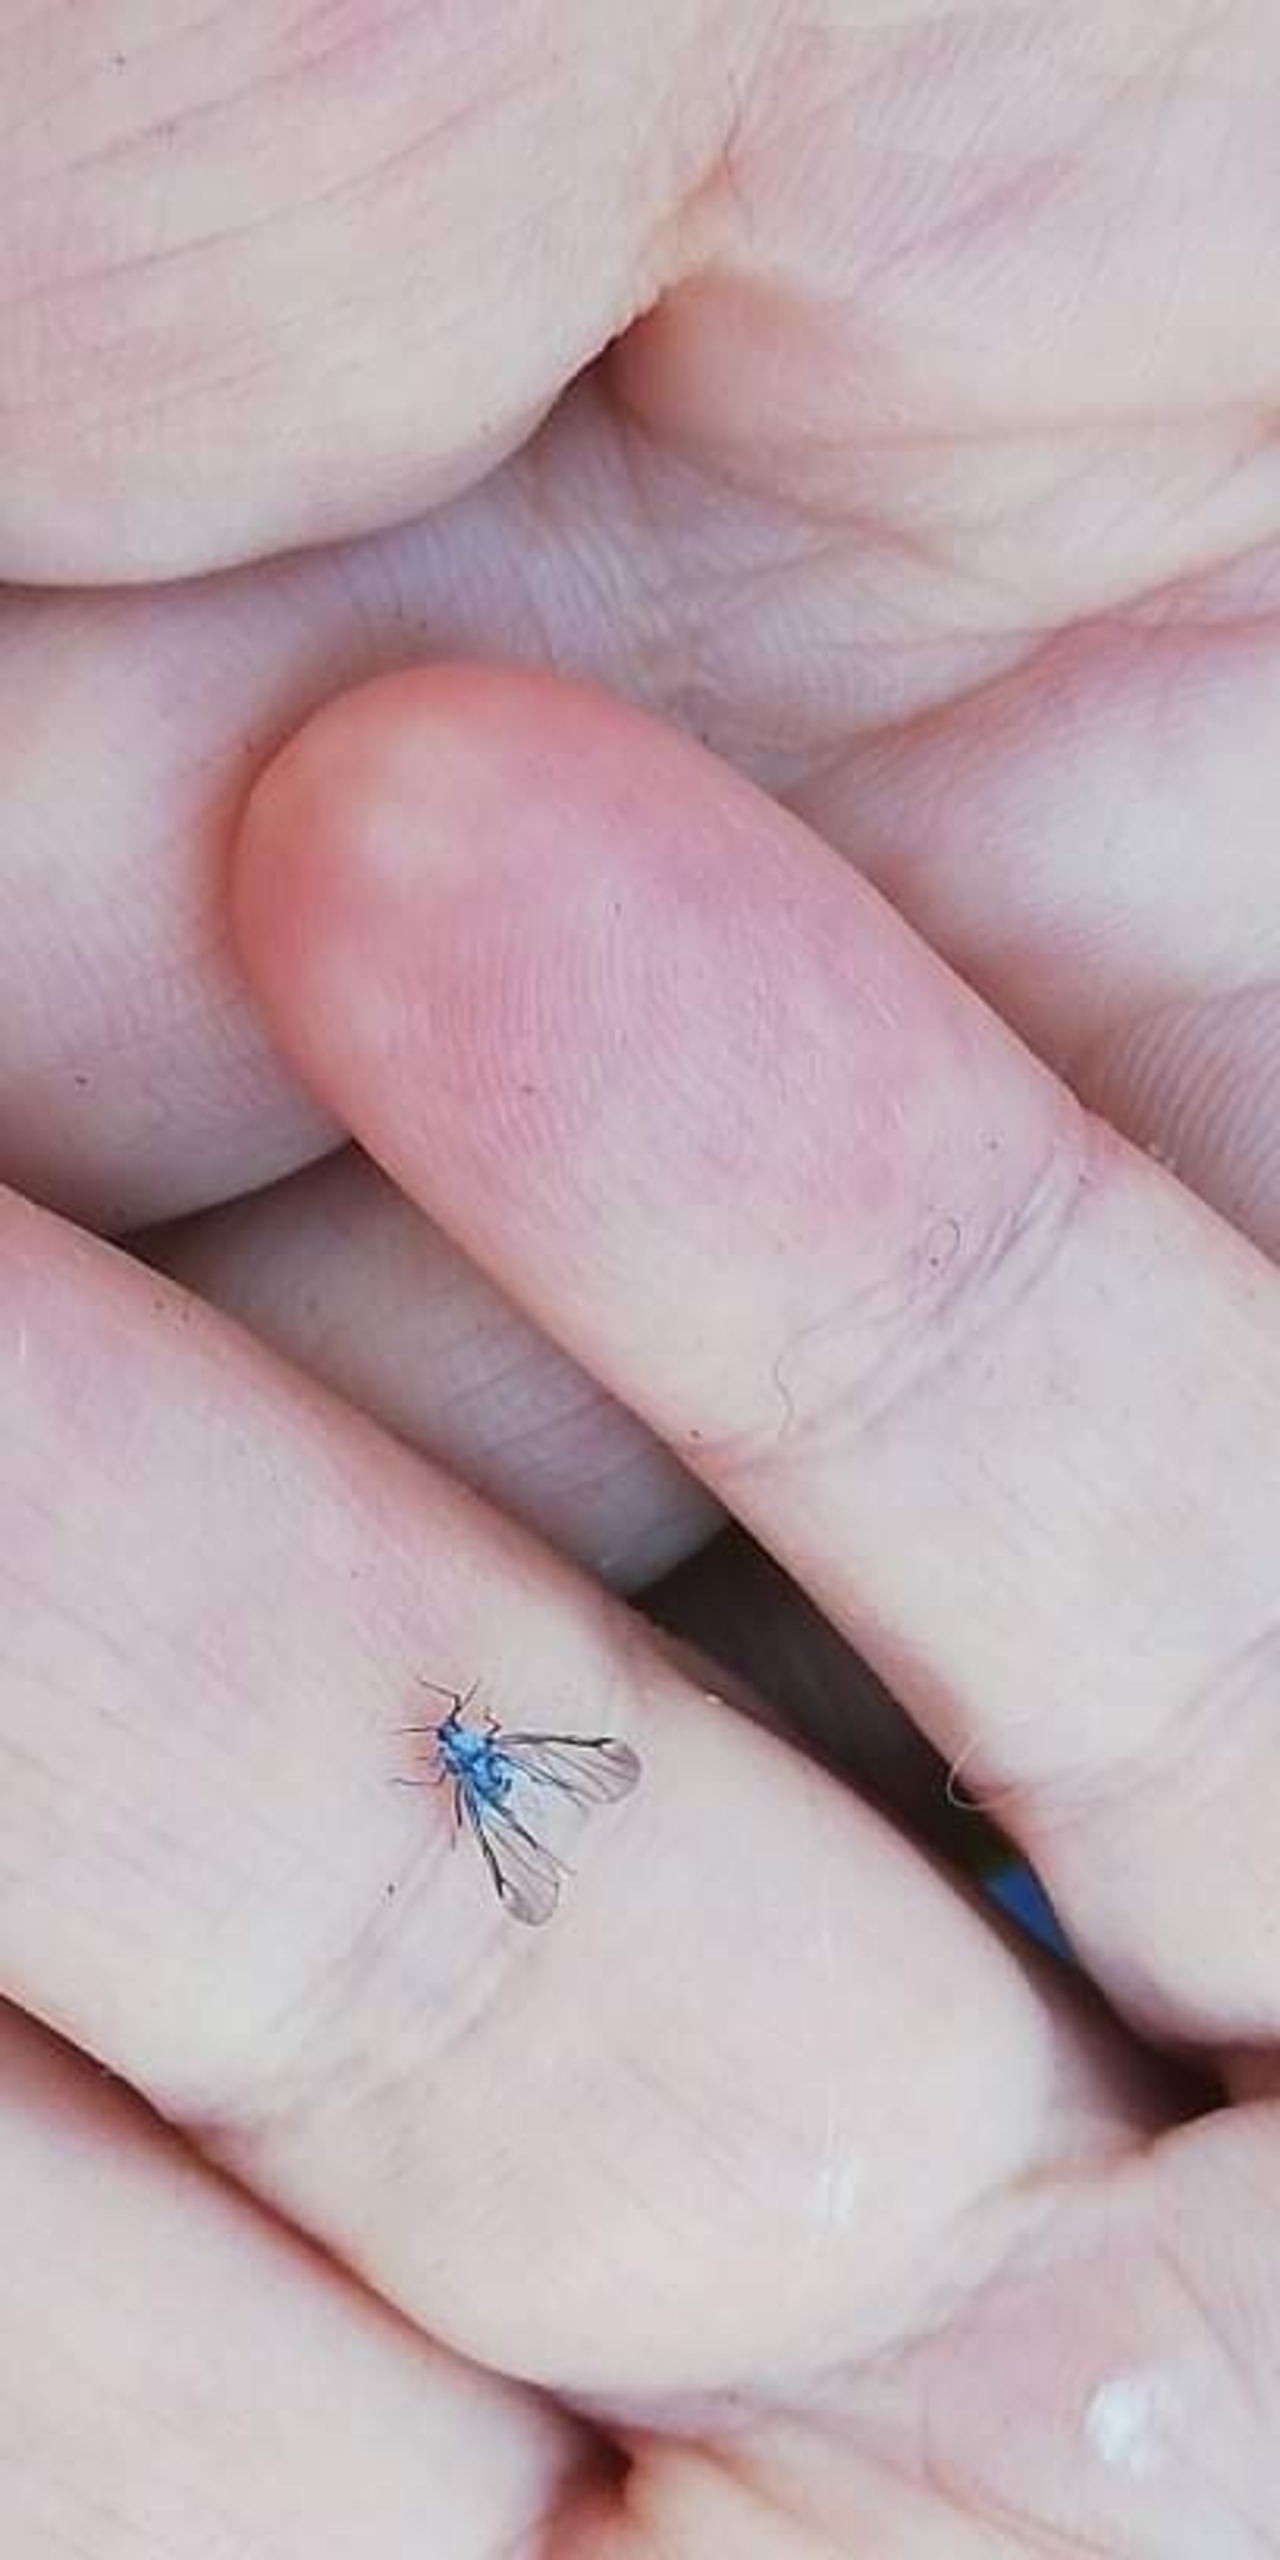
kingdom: Animalia
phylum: Arthropoda
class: Insecta
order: Hemiptera
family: Aphididae
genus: Prociphilus
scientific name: Prociphilus
